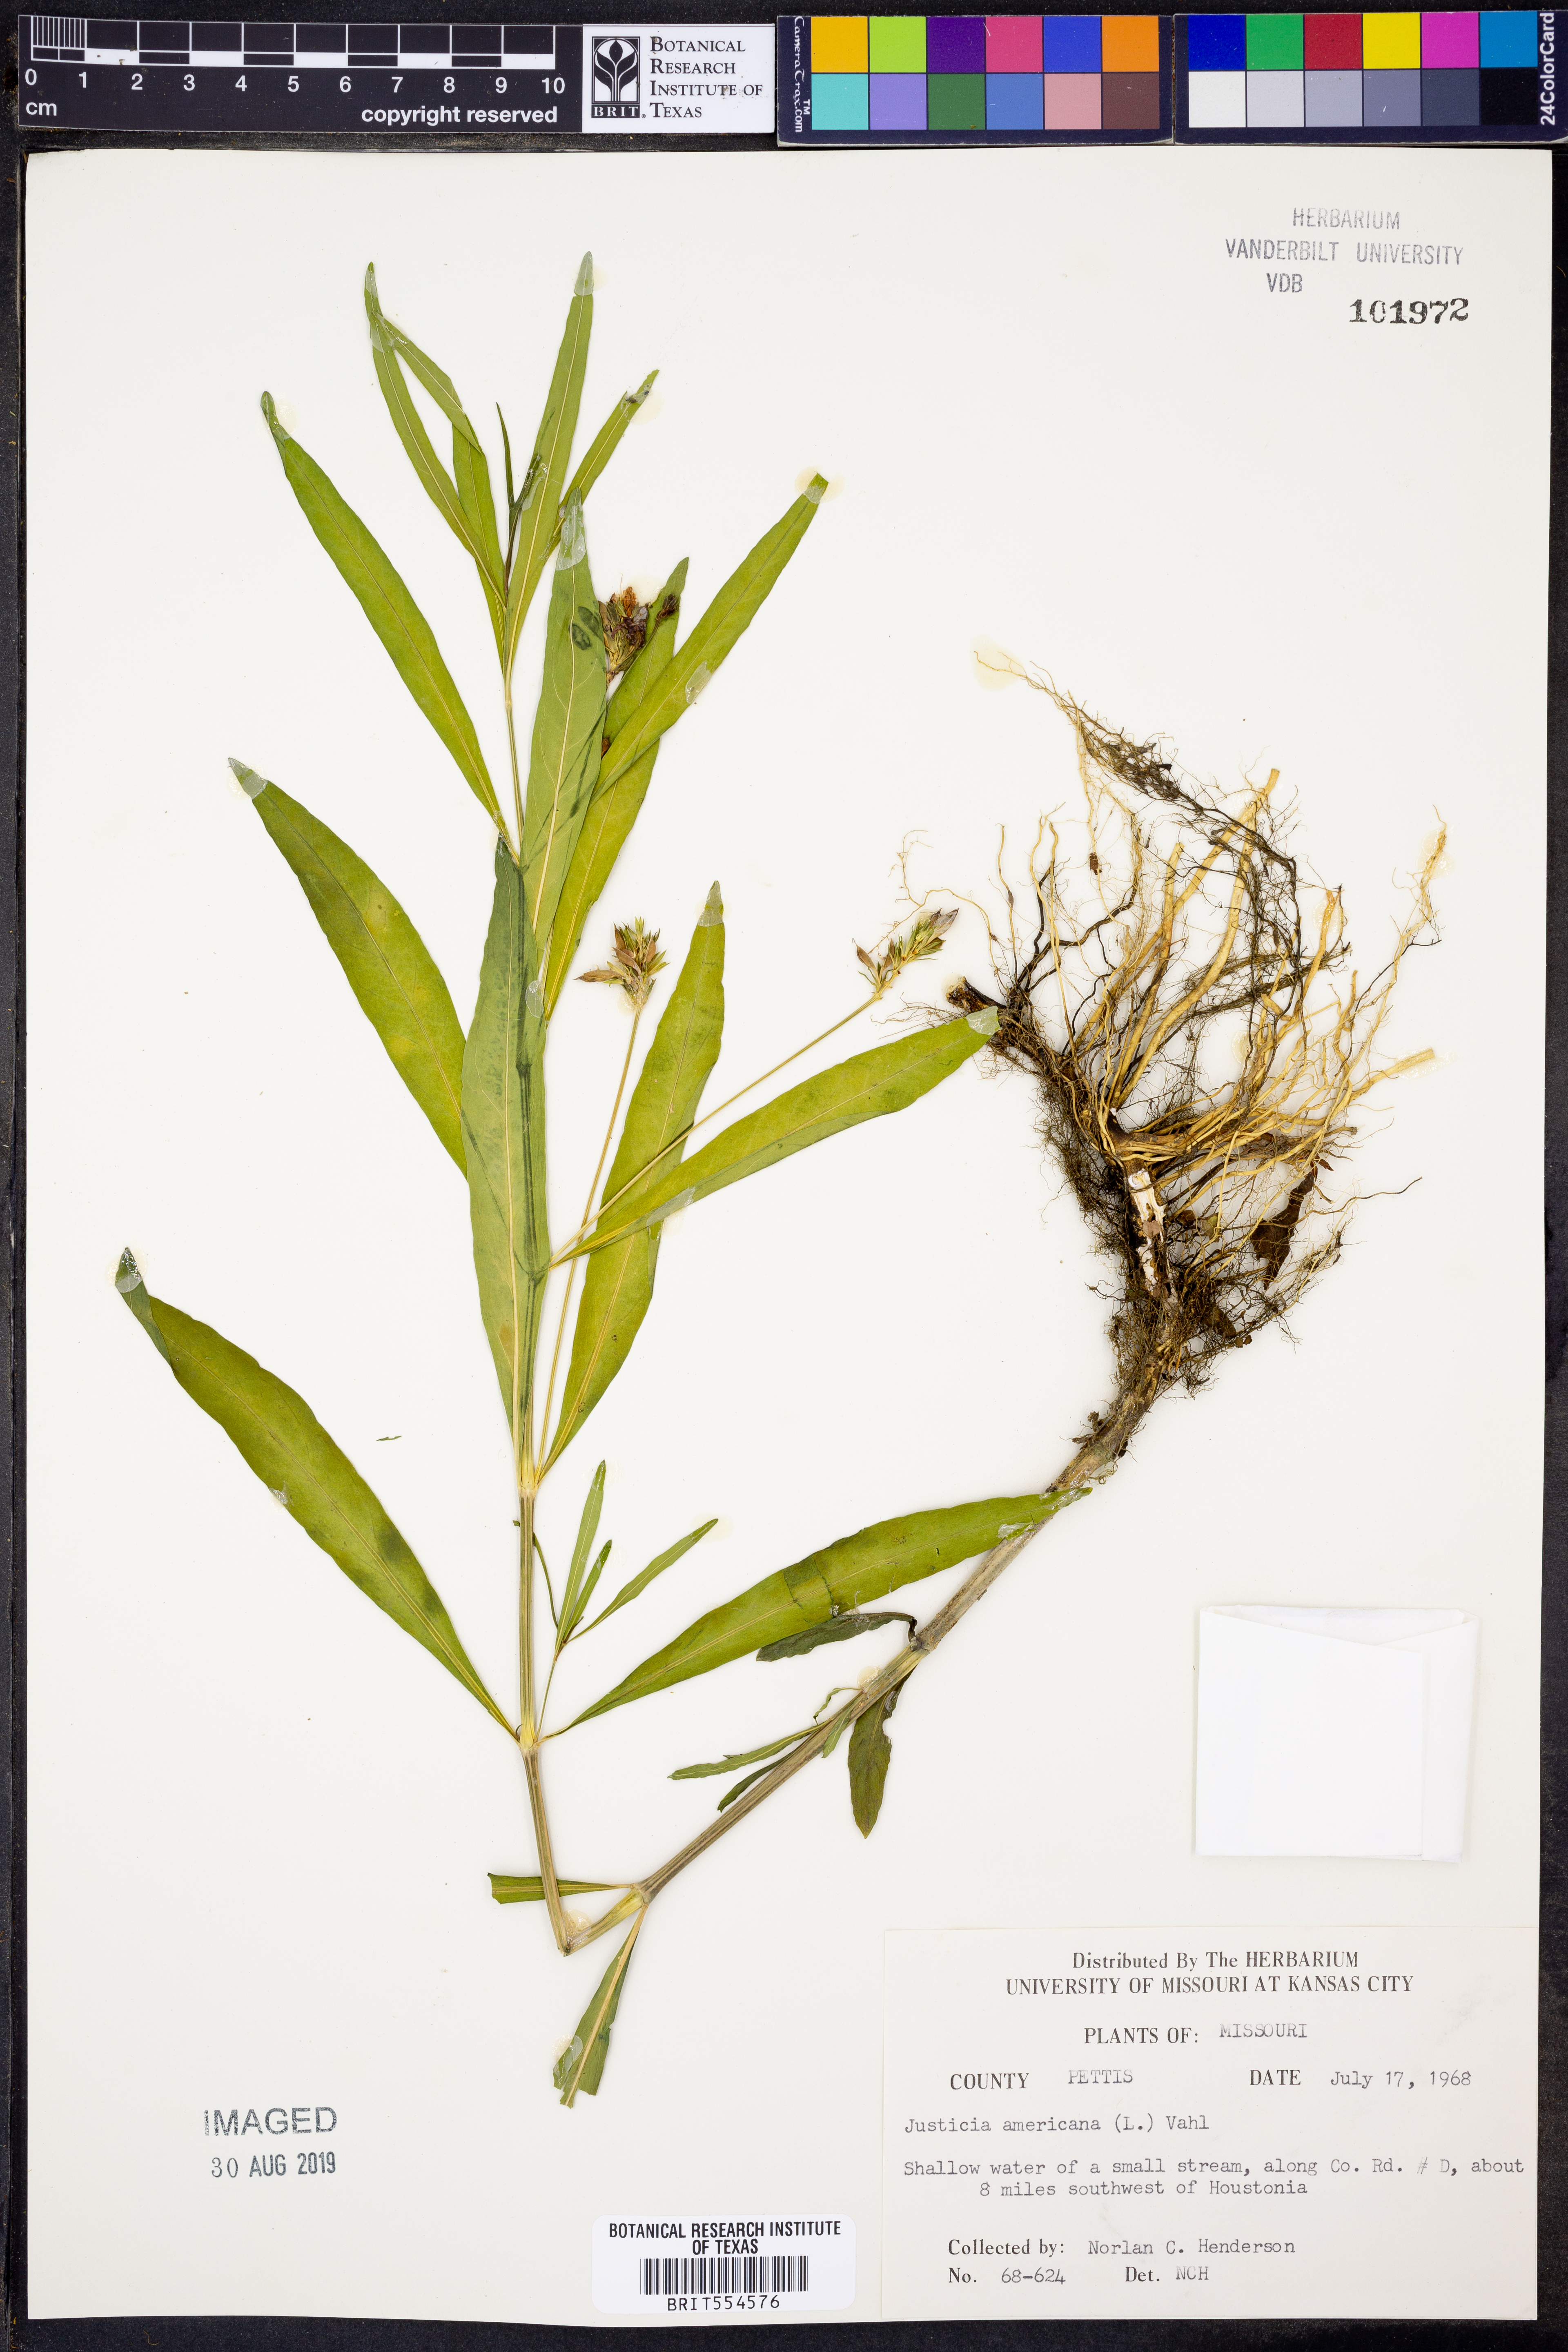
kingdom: Plantae
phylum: Tracheophyta
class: Magnoliopsida
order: Lamiales
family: Acanthaceae
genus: Dianthera
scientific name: Dianthera americana
